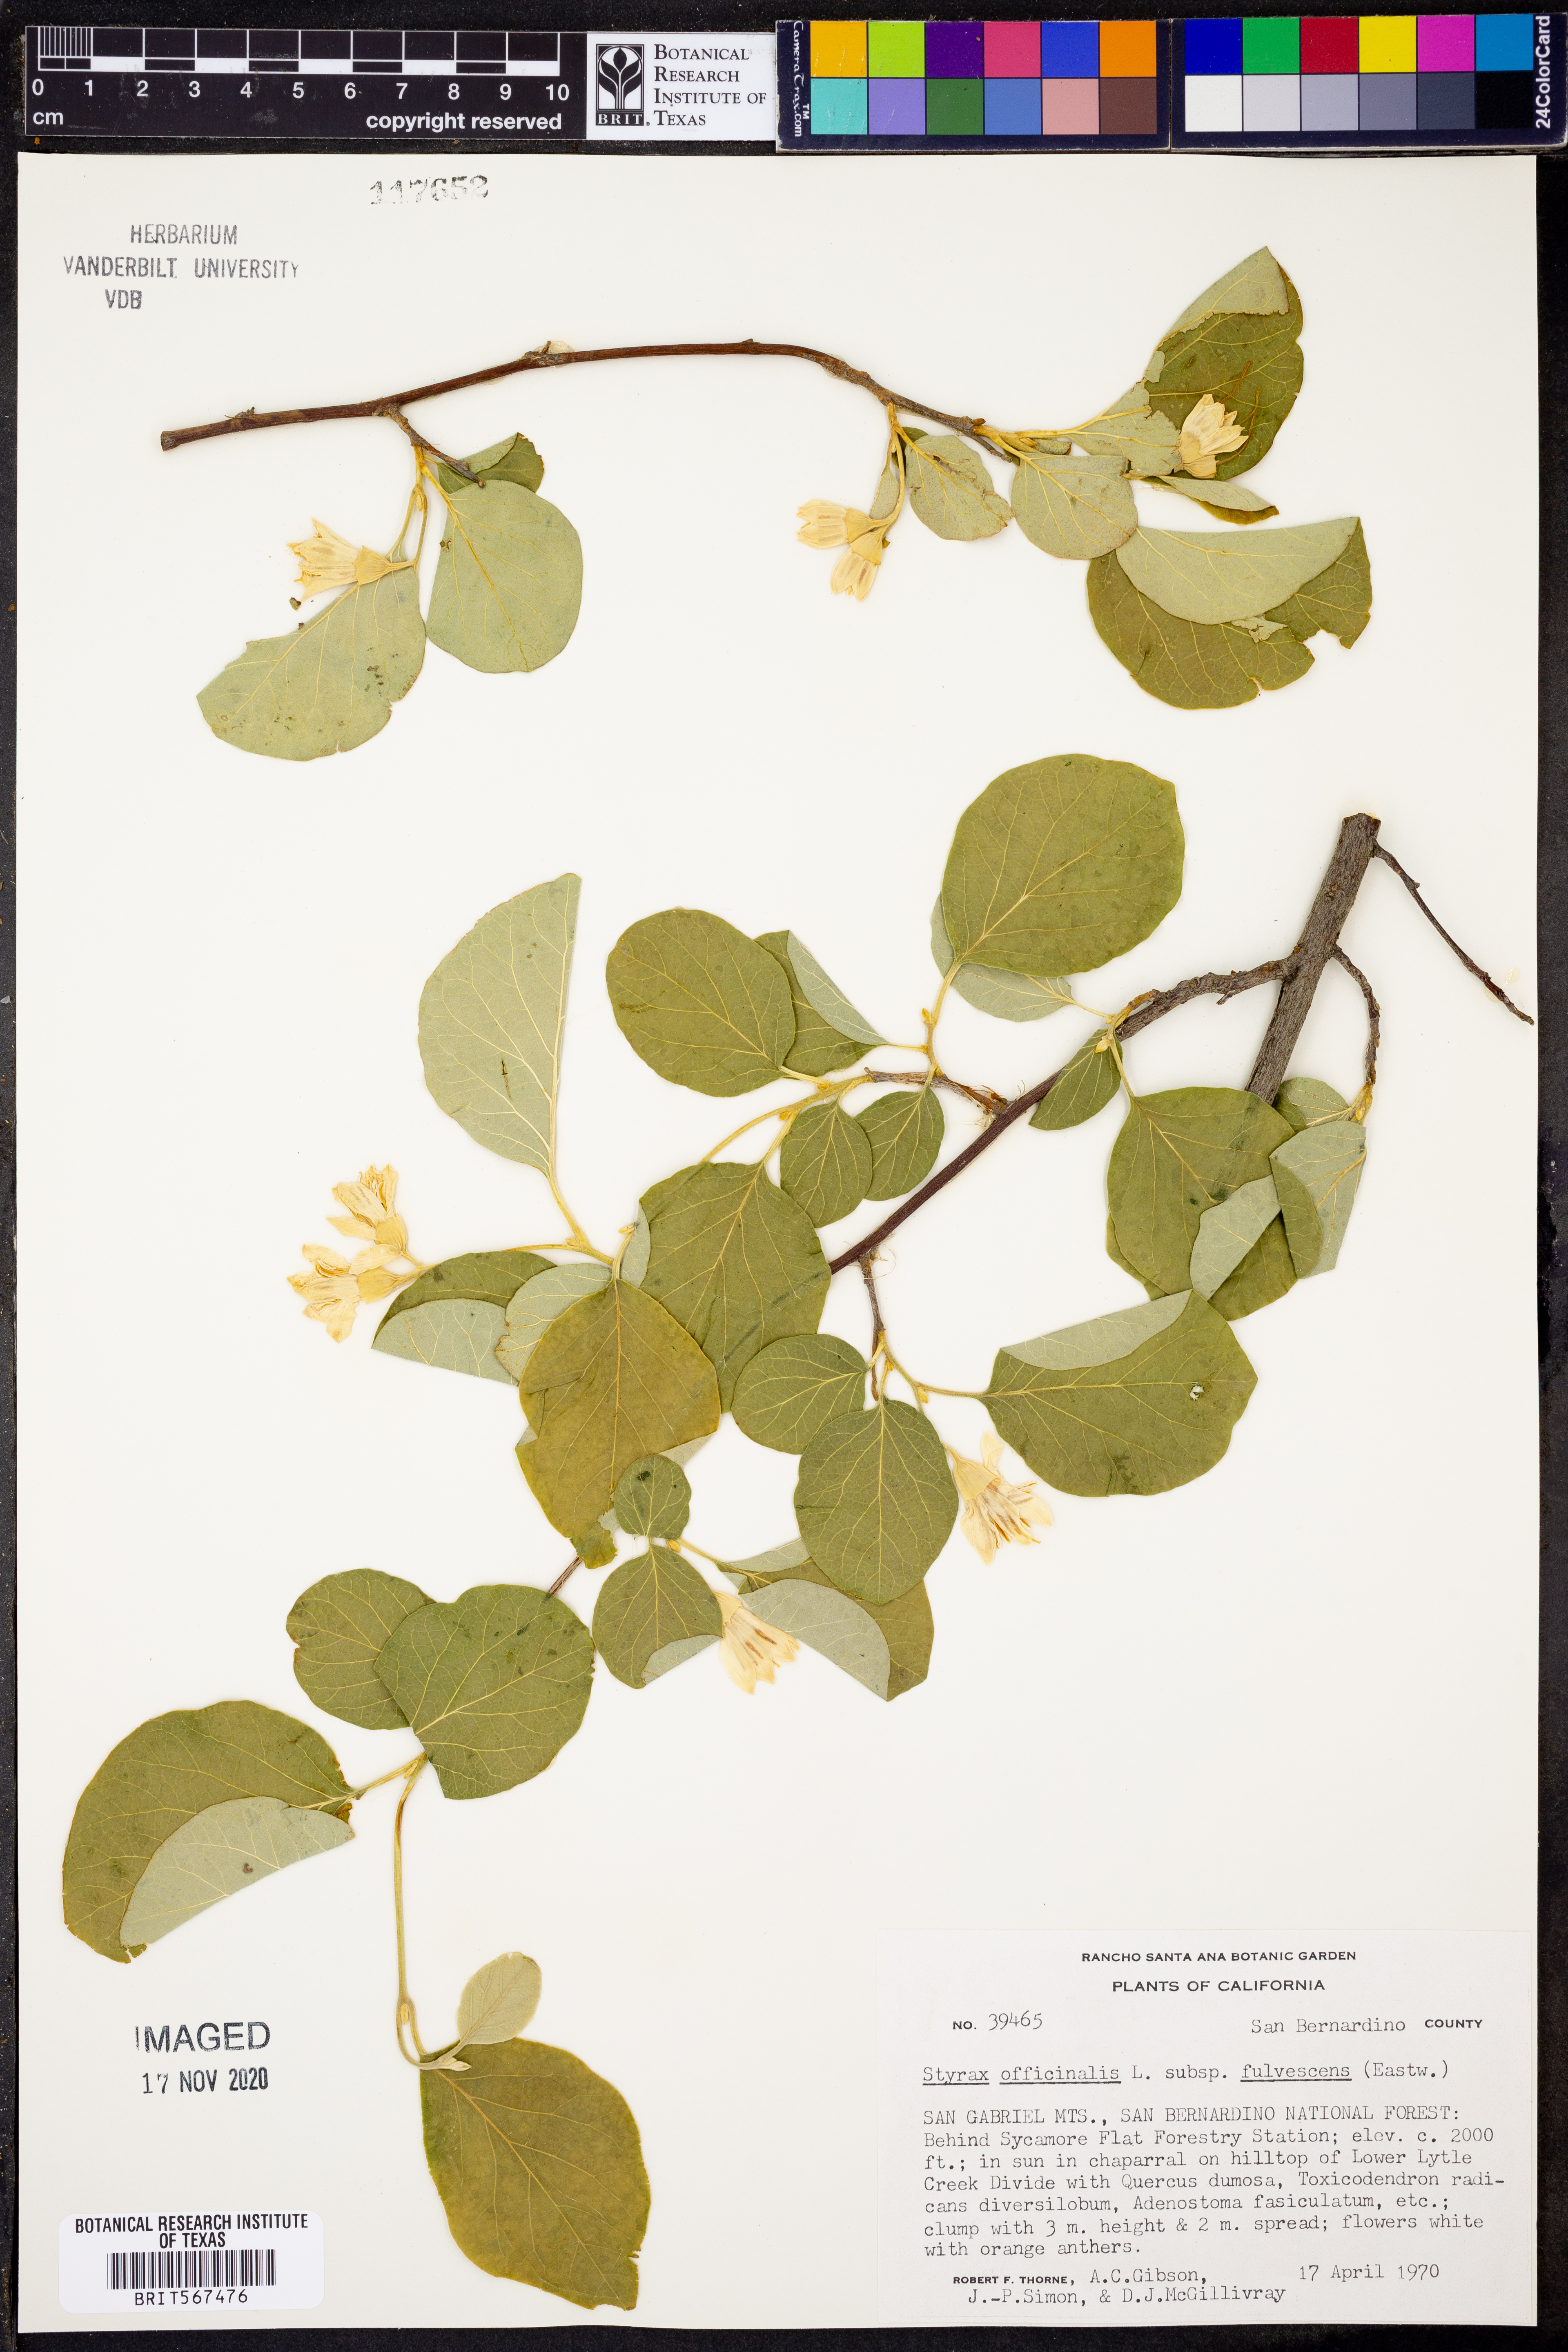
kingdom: Plantae
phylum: Tracheophyta
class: Magnoliopsida
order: Ericales
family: Styracaceae
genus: Styrax
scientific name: Styrax redivivus
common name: California styrax
